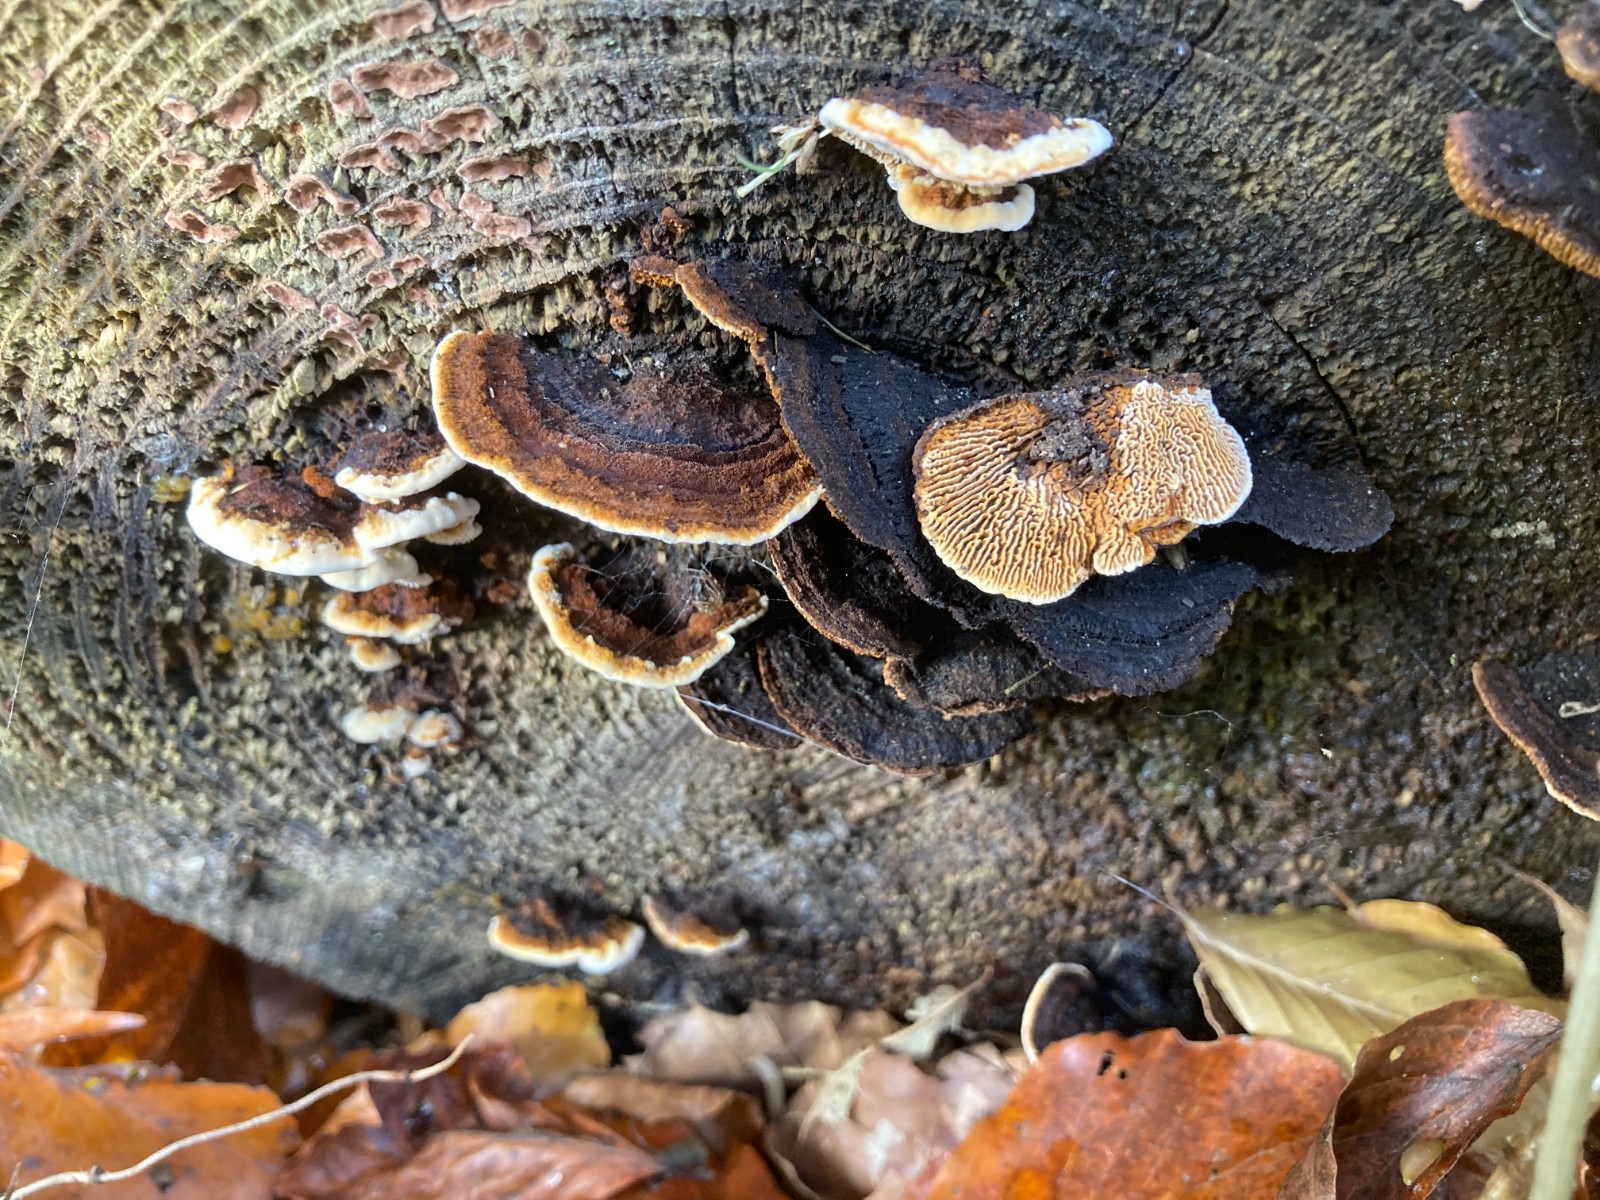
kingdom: Fungi
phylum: Basidiomycota
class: Agaricomycetes
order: Gloeophyllales
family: Gloeophyllaceae
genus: Gloeophyllum
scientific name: Gloeophyllum sepiarium
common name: fyrre-korkhat
